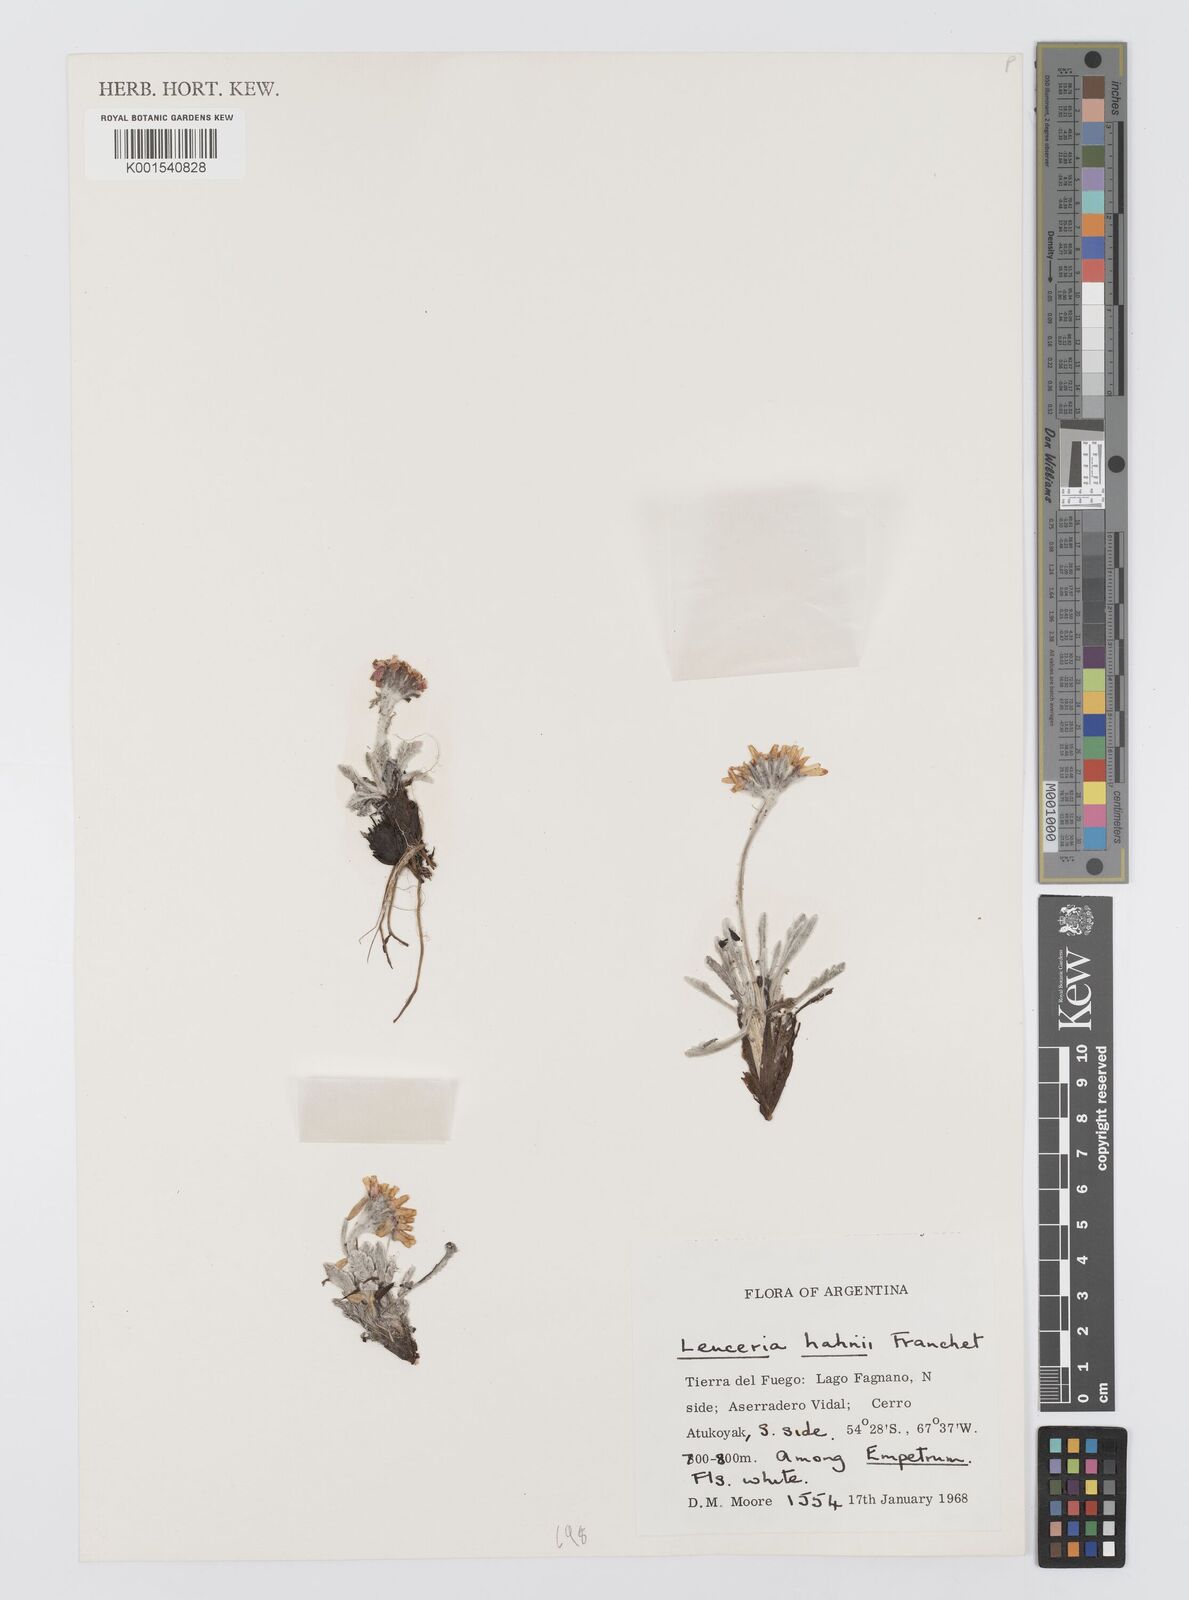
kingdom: Plantae
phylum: Tracheophyta
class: Magnoliopsida
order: Asterales
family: Asteraceae
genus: Leucheria
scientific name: Leucheria hahnii
